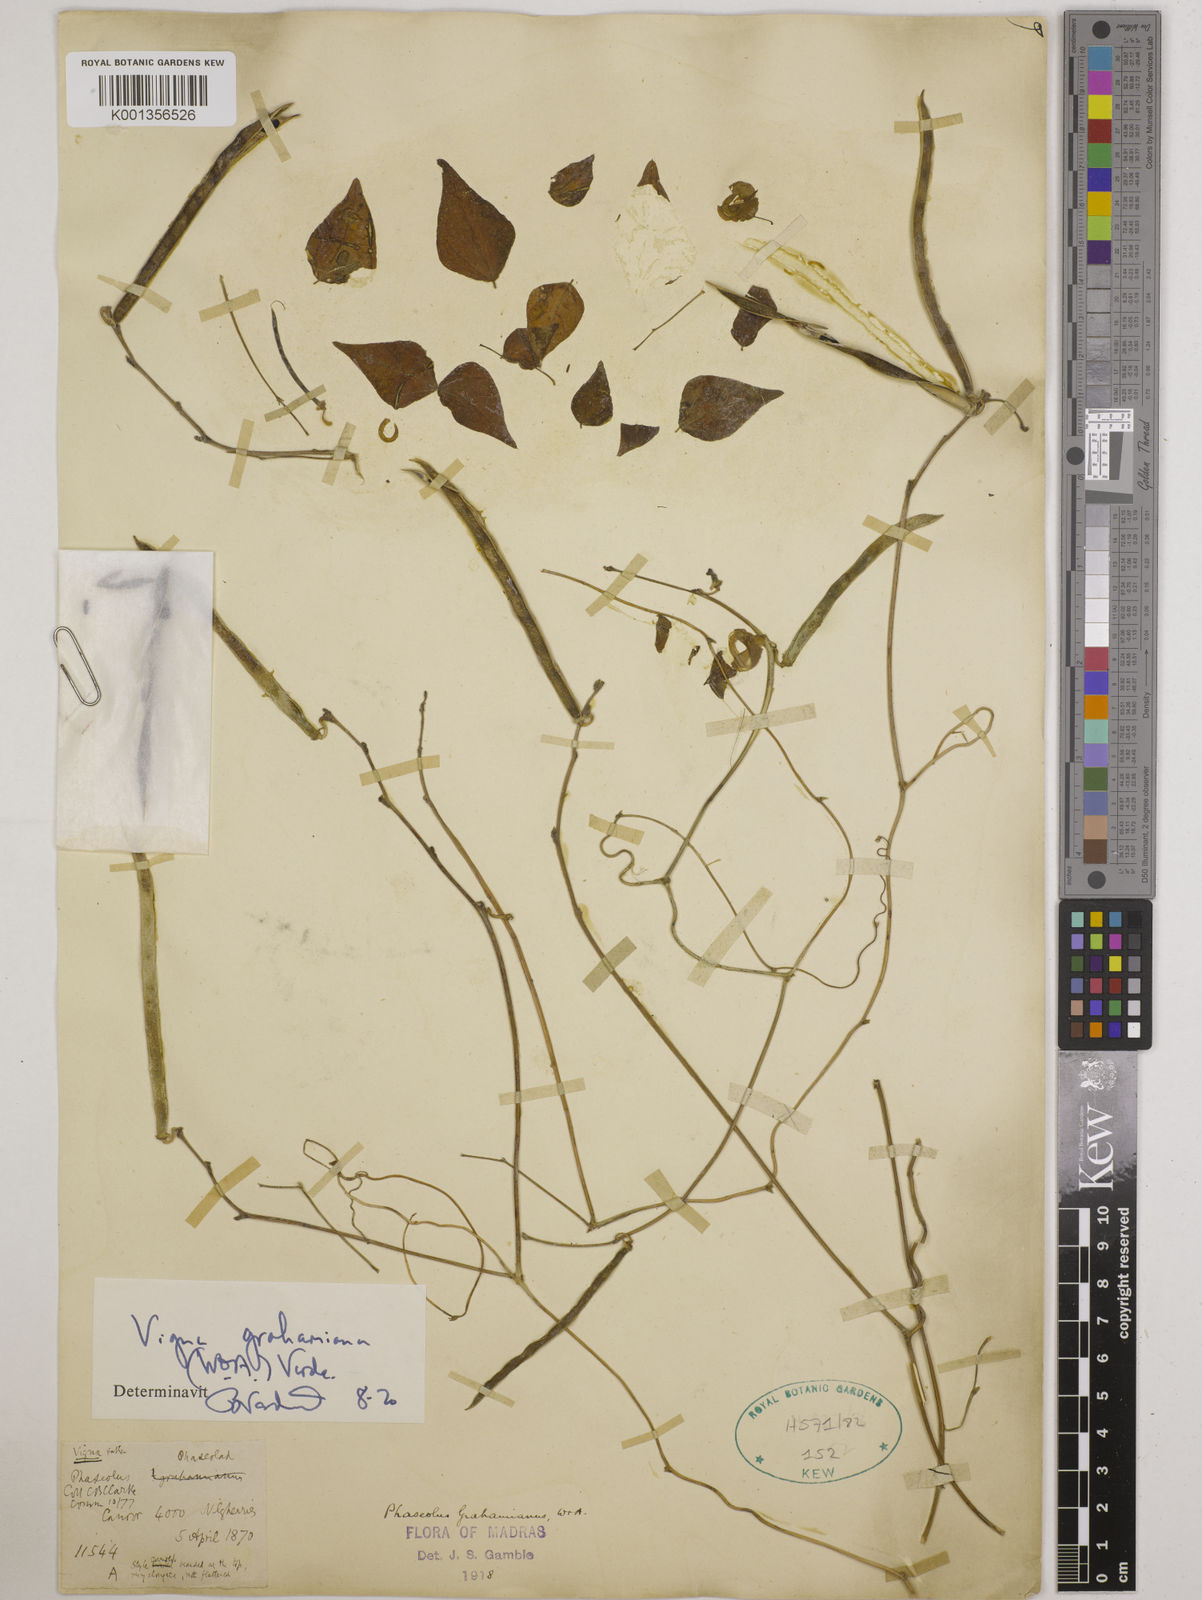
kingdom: Plantae
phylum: Tracheophyta
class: Magnoliopsida
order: Fabales
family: Fabaceae
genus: Wajira
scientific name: Wajira grahamiana
